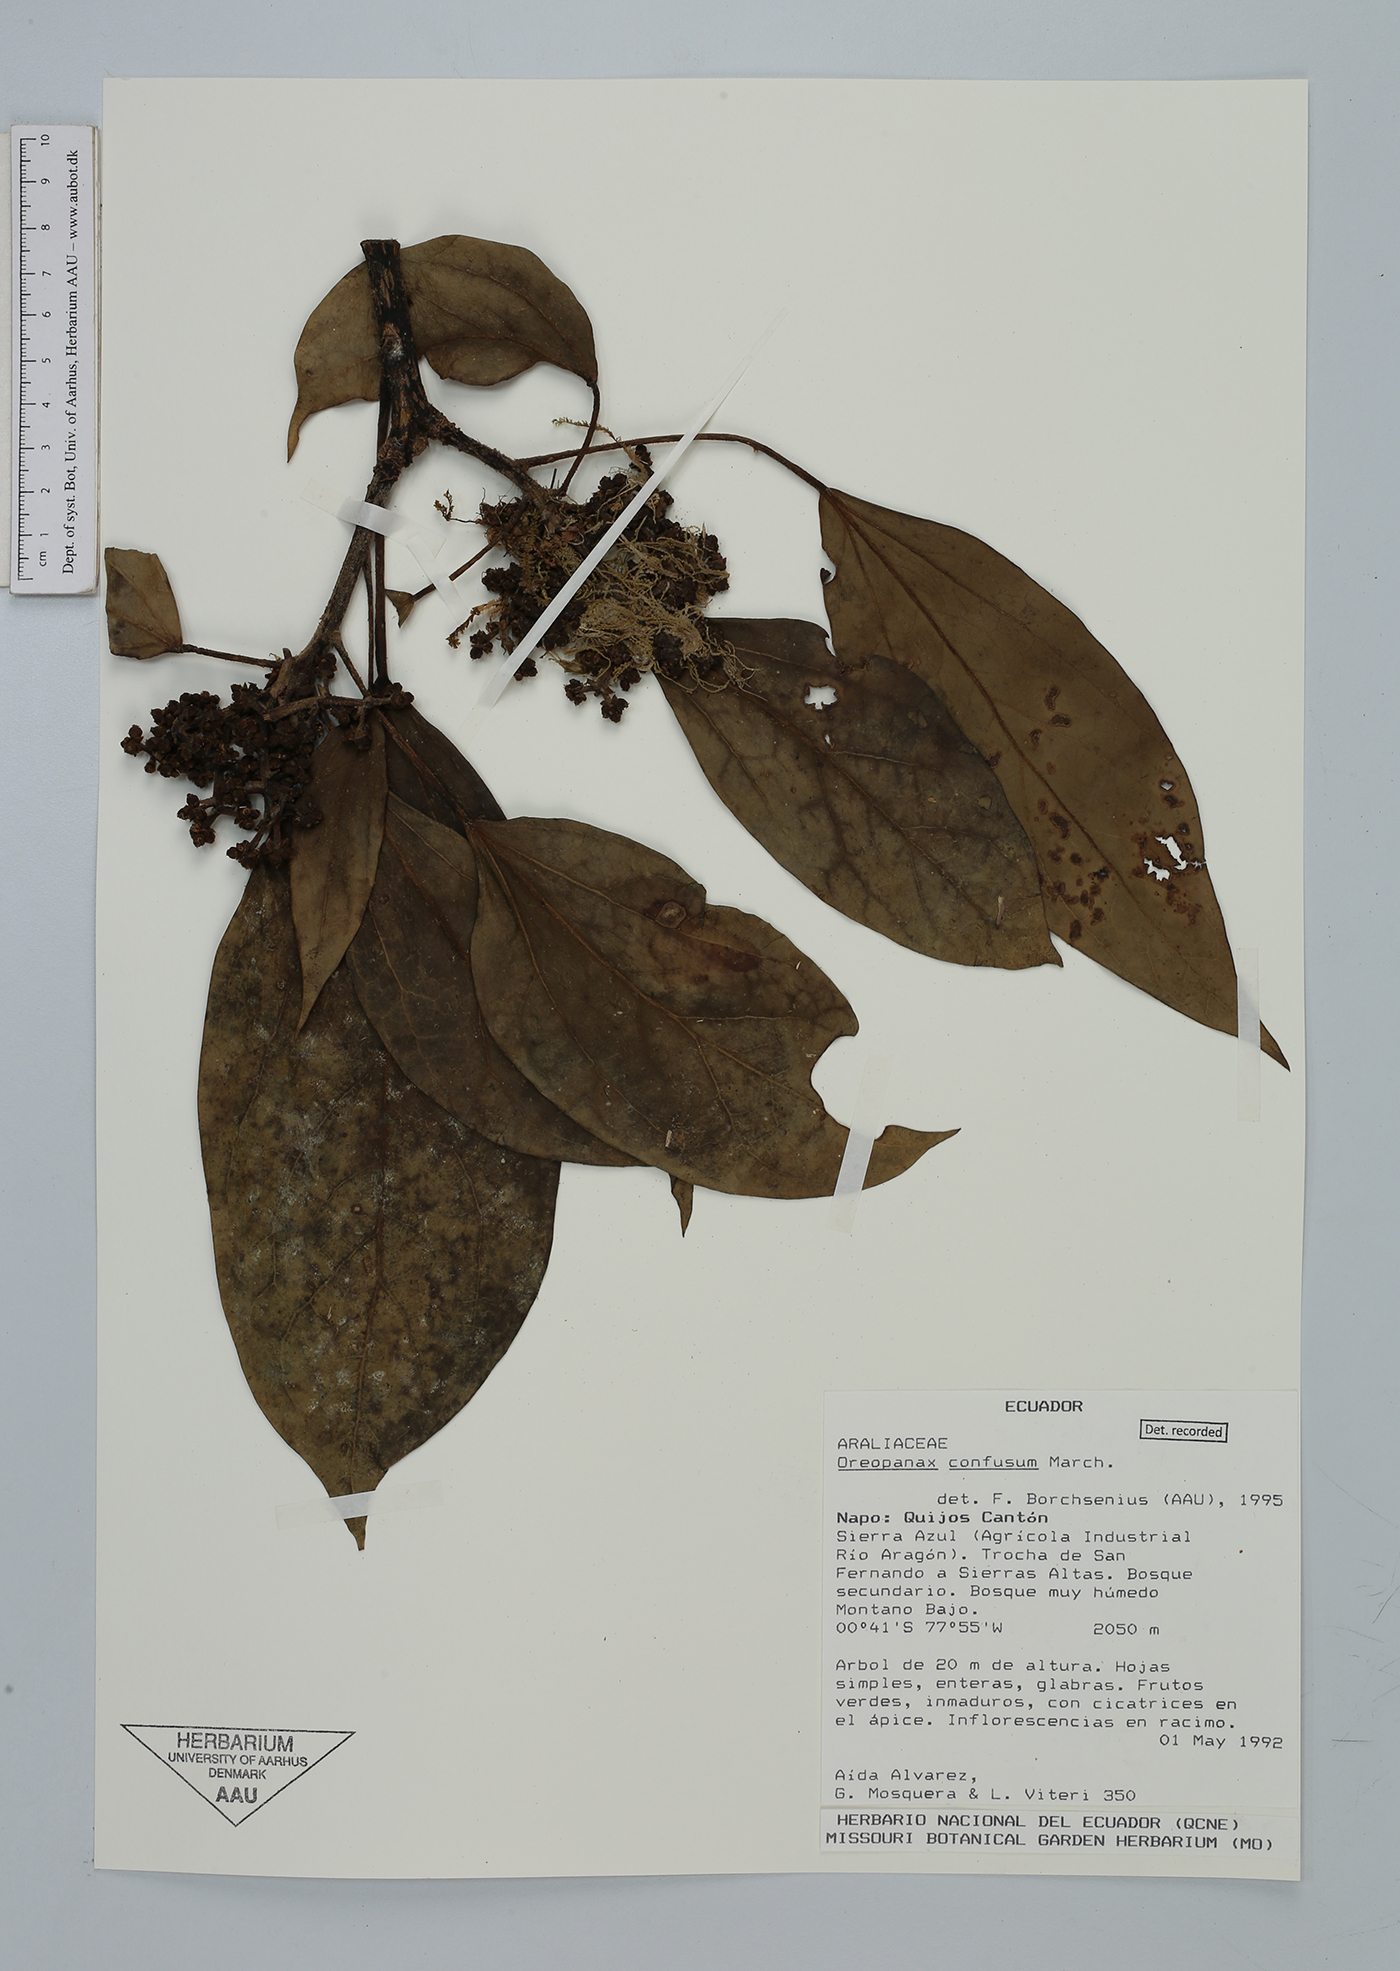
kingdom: Plantae
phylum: Tracheophyta
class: Magnoliopsida
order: Apiales
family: Araliaceae
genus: Oreopanax
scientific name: Oreopanax confusus
